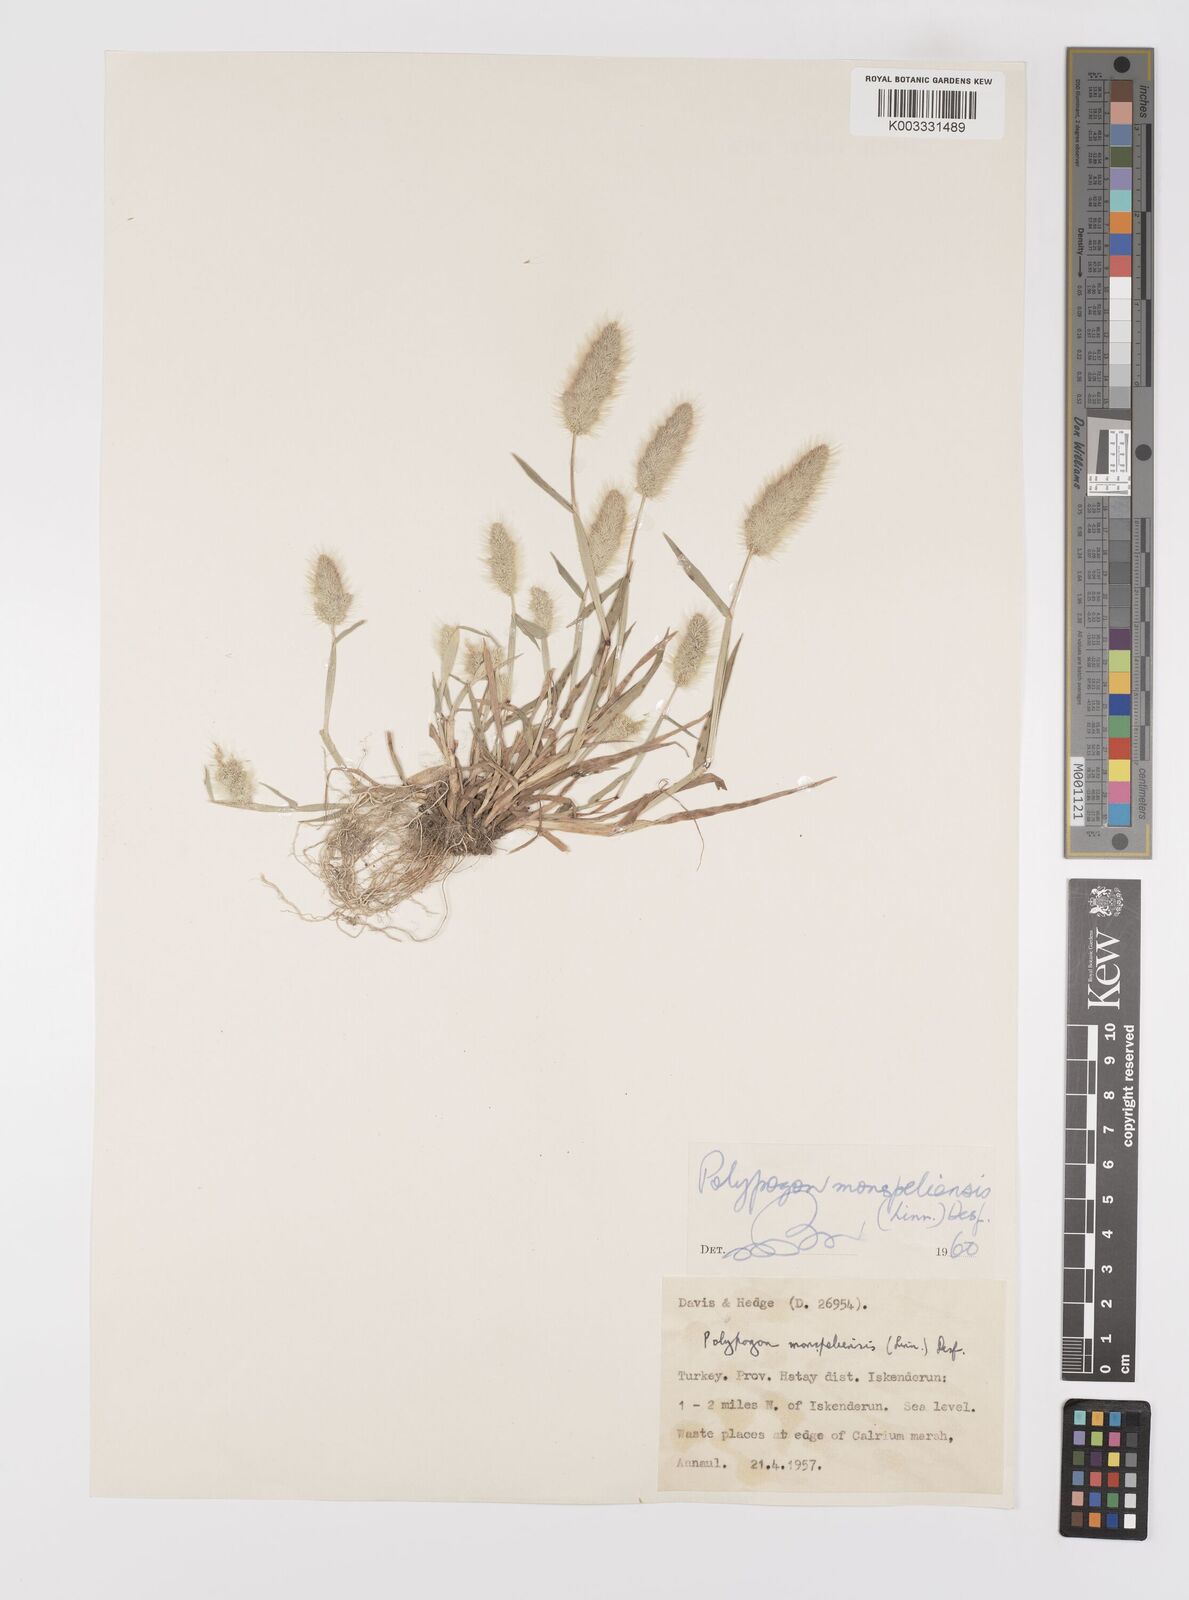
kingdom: Plantae
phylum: Tracheophyta
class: Liliopsida
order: Poales
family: Poaceae
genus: Polypogon
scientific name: Polypogon monspeliensis
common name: Annual rabbitsfoot grass
